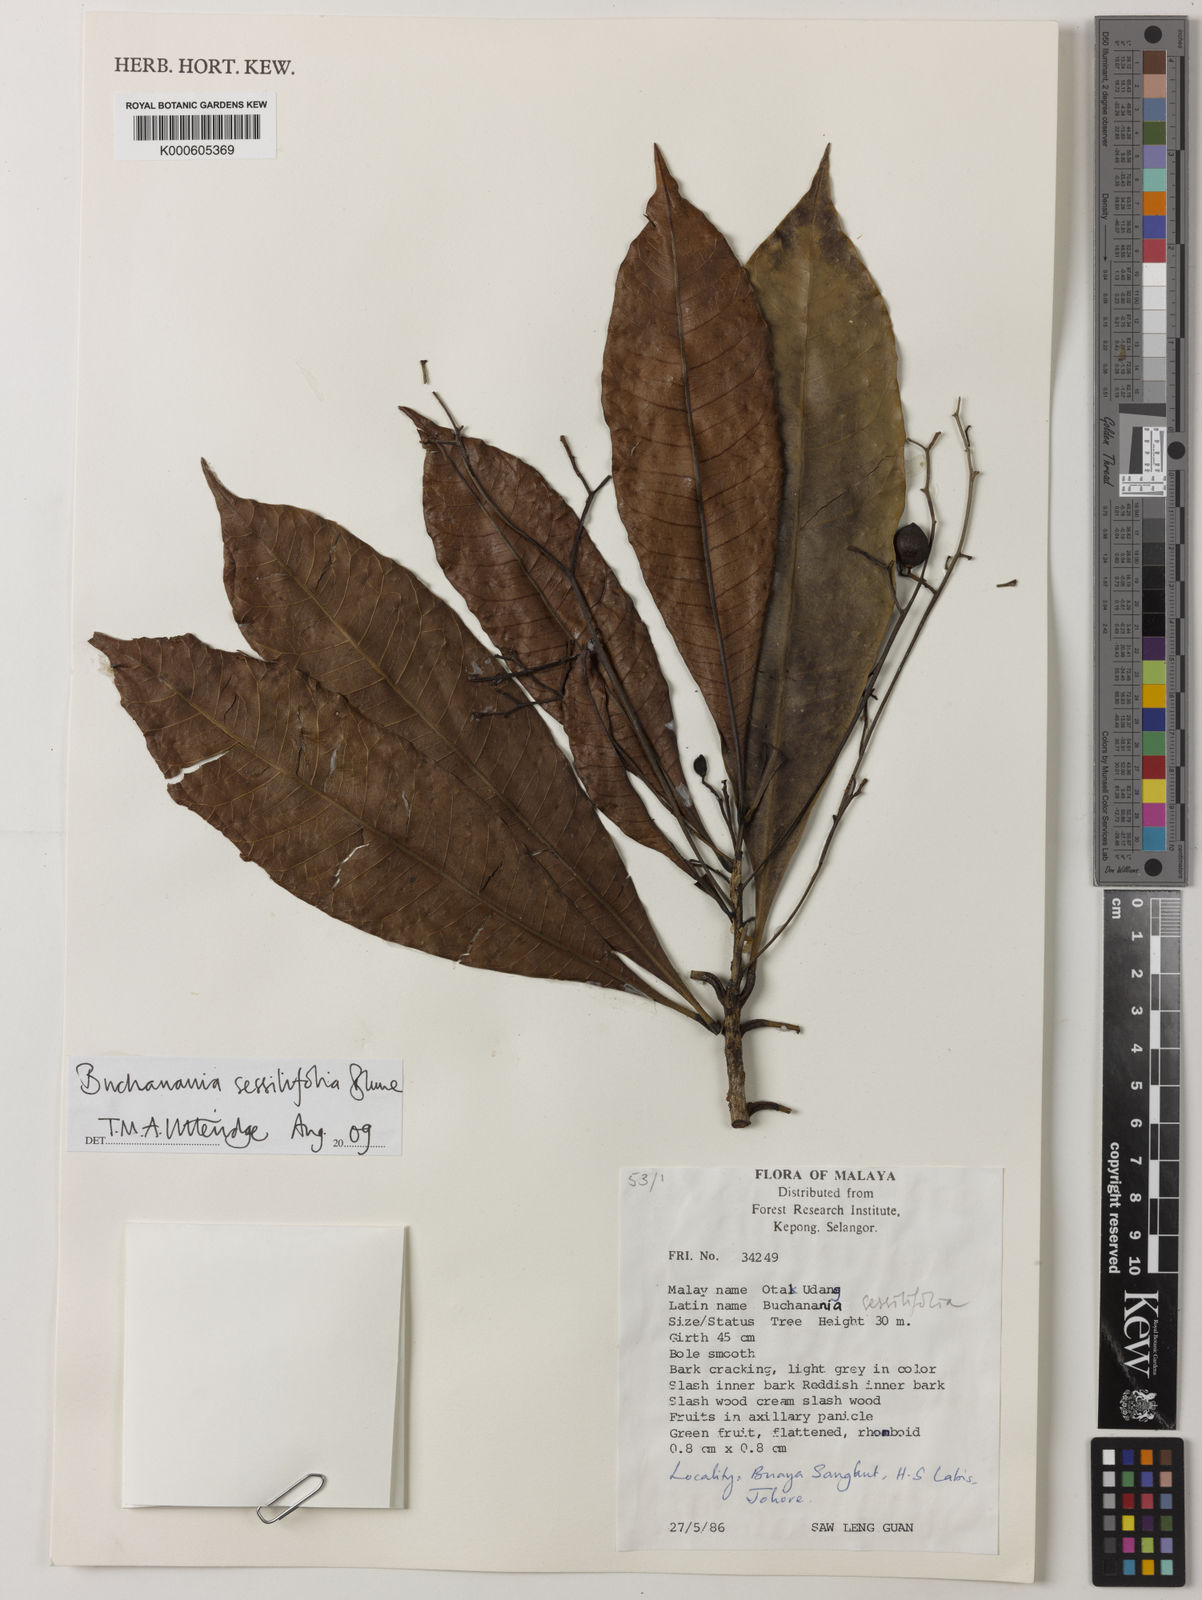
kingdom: Plantae
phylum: Tracheophyta
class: Magnoliopsida
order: Sapindales
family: Anacardiaceae
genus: Buchanania
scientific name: Buchanania sessifolia
